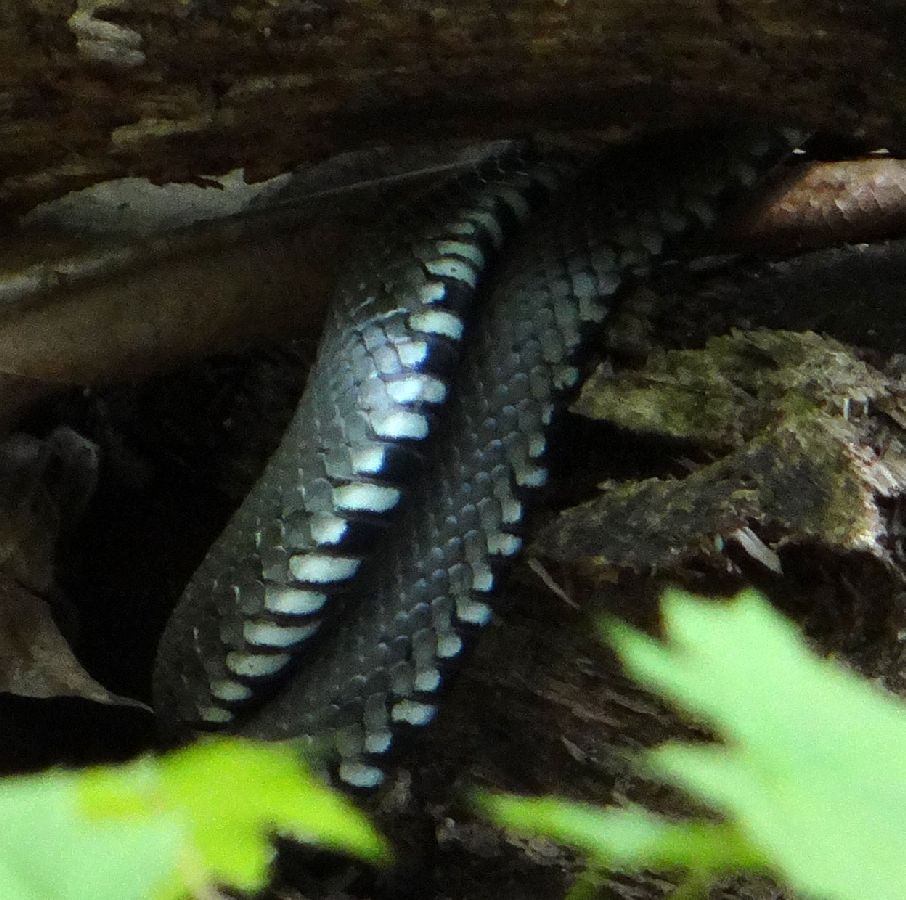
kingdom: Animalia
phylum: Chordata
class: Squamata
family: Colubridae
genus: Natrix
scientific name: Natrix natrix
